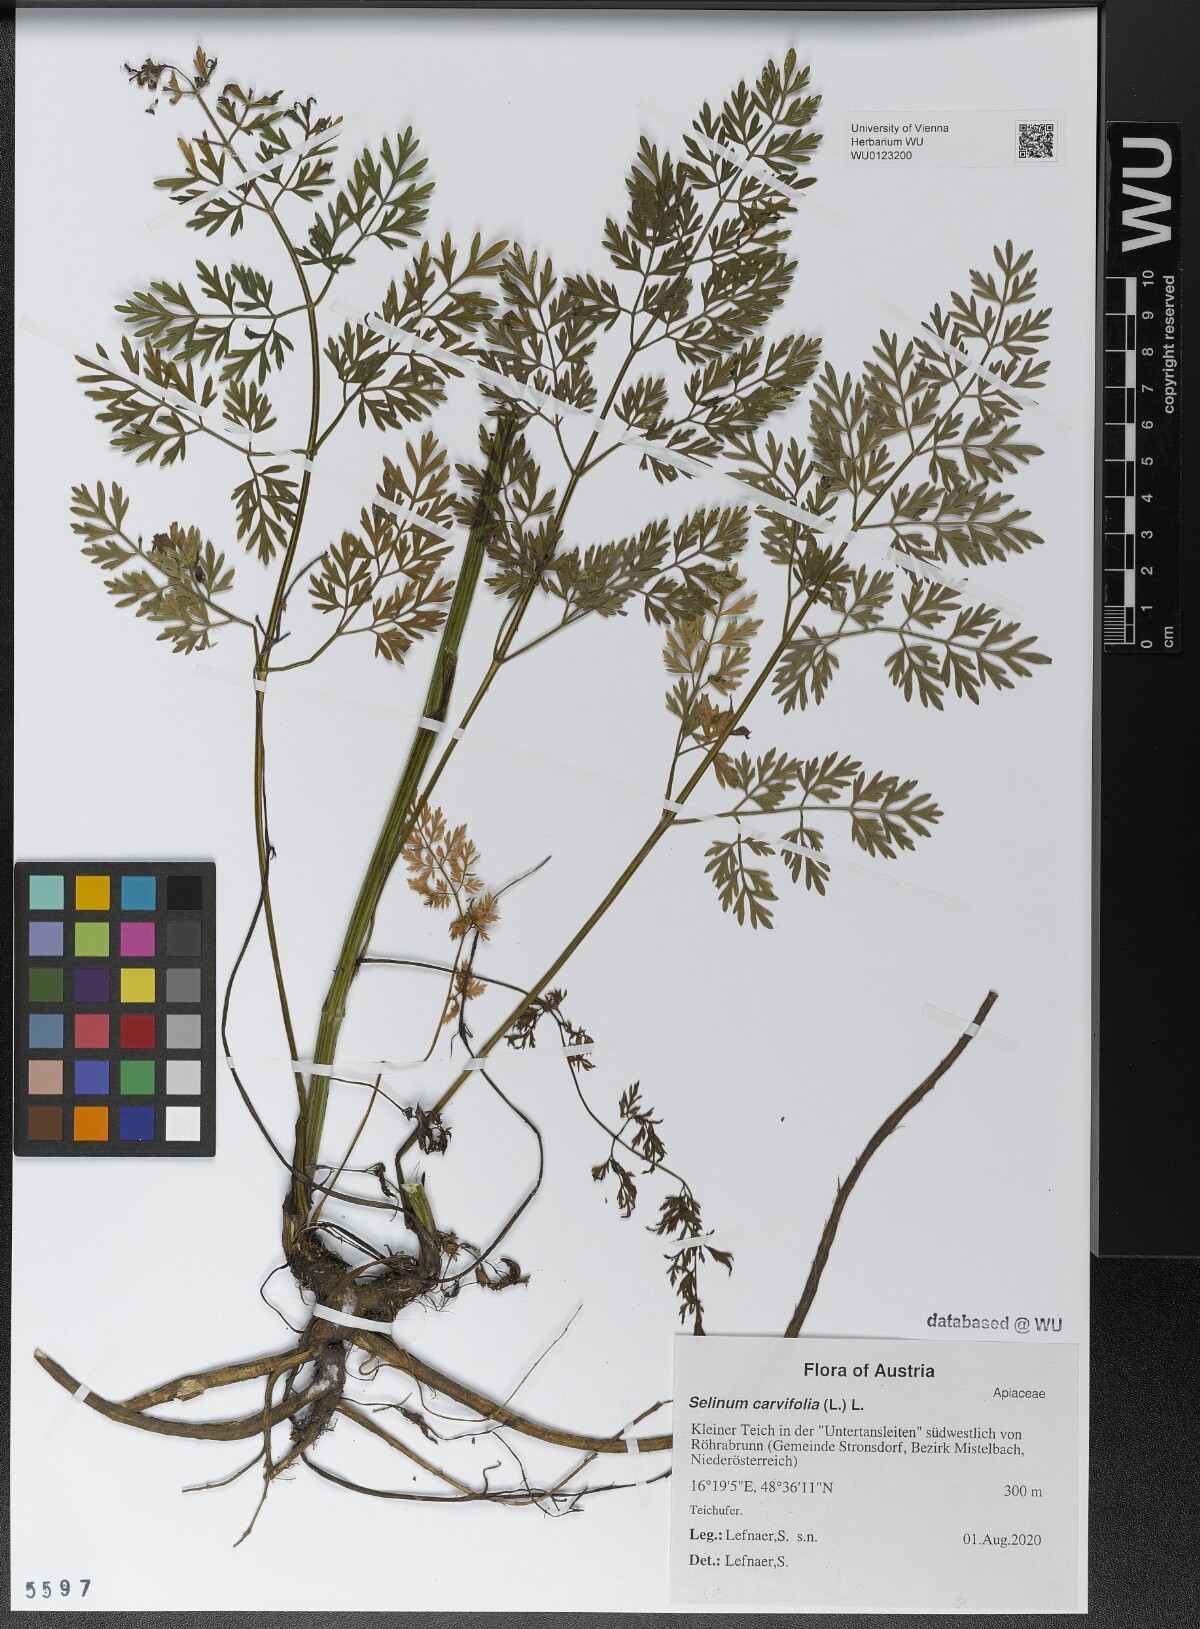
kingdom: Plantae
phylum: Tracheophyta
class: Magnoliopsida
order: Apiales
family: Apiaceae
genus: Selinum
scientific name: Selinum carvifolia
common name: Cambridge milk-parsley
